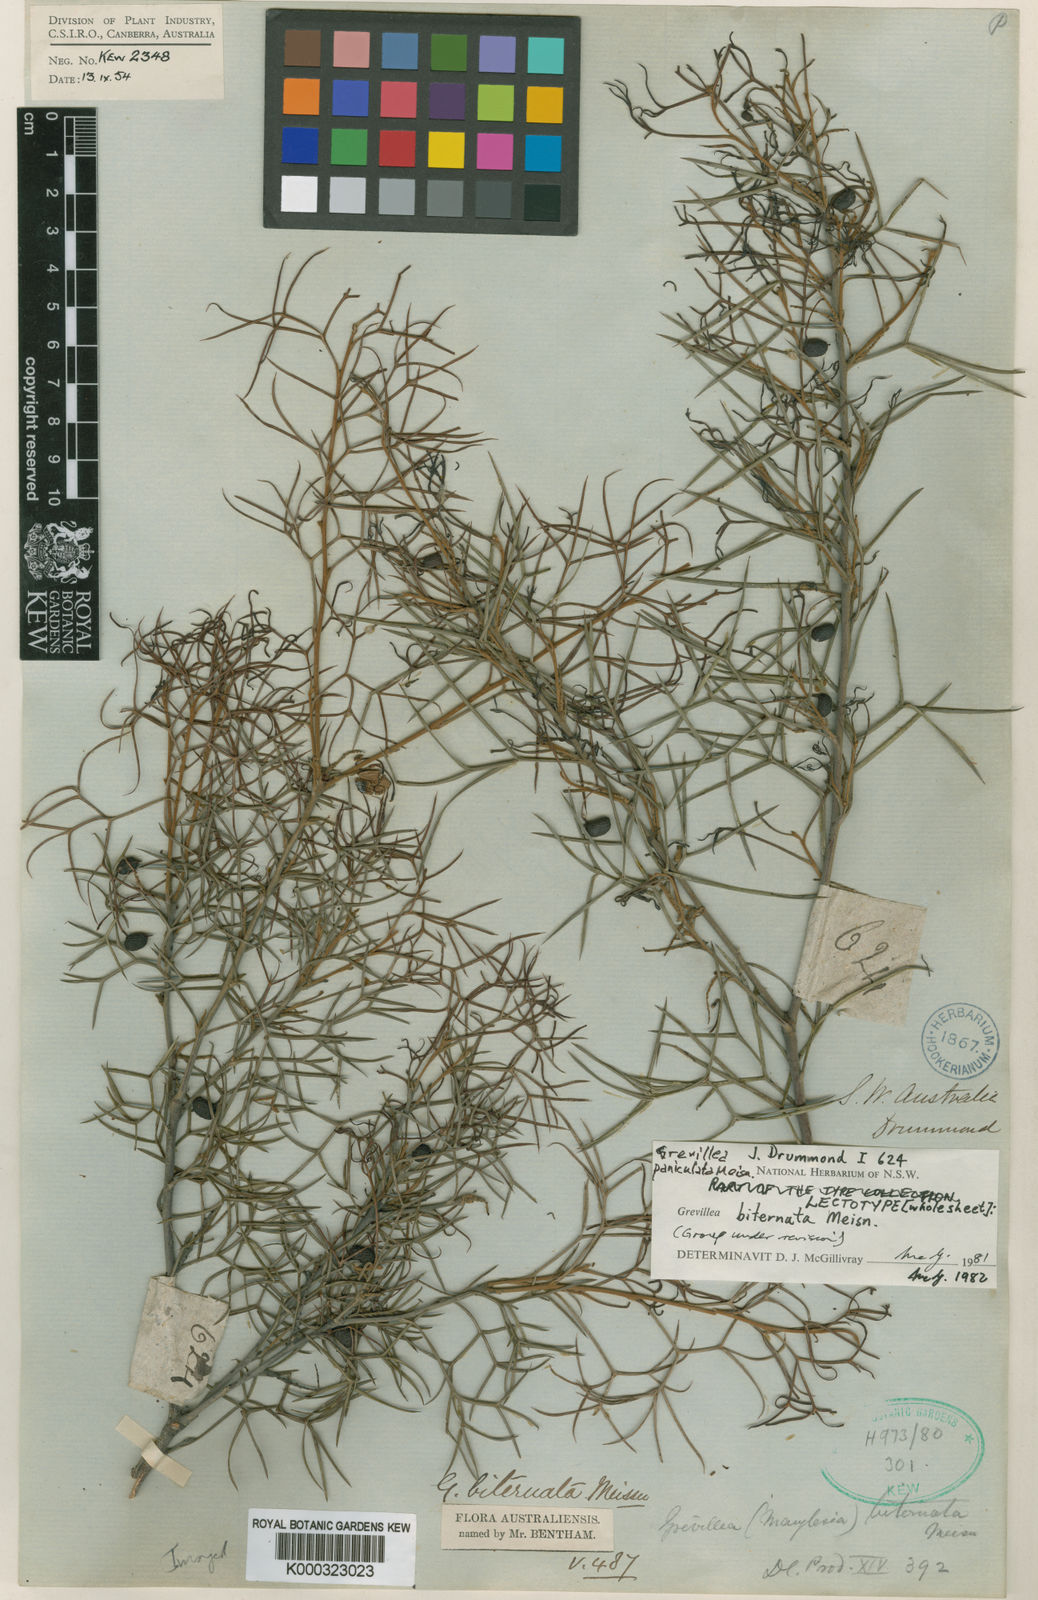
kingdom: Plantae
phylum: Tracheophyta
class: Magnoliopsida
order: Proteales
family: Proteaceae
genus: Grevillea
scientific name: Grevillea biternata
